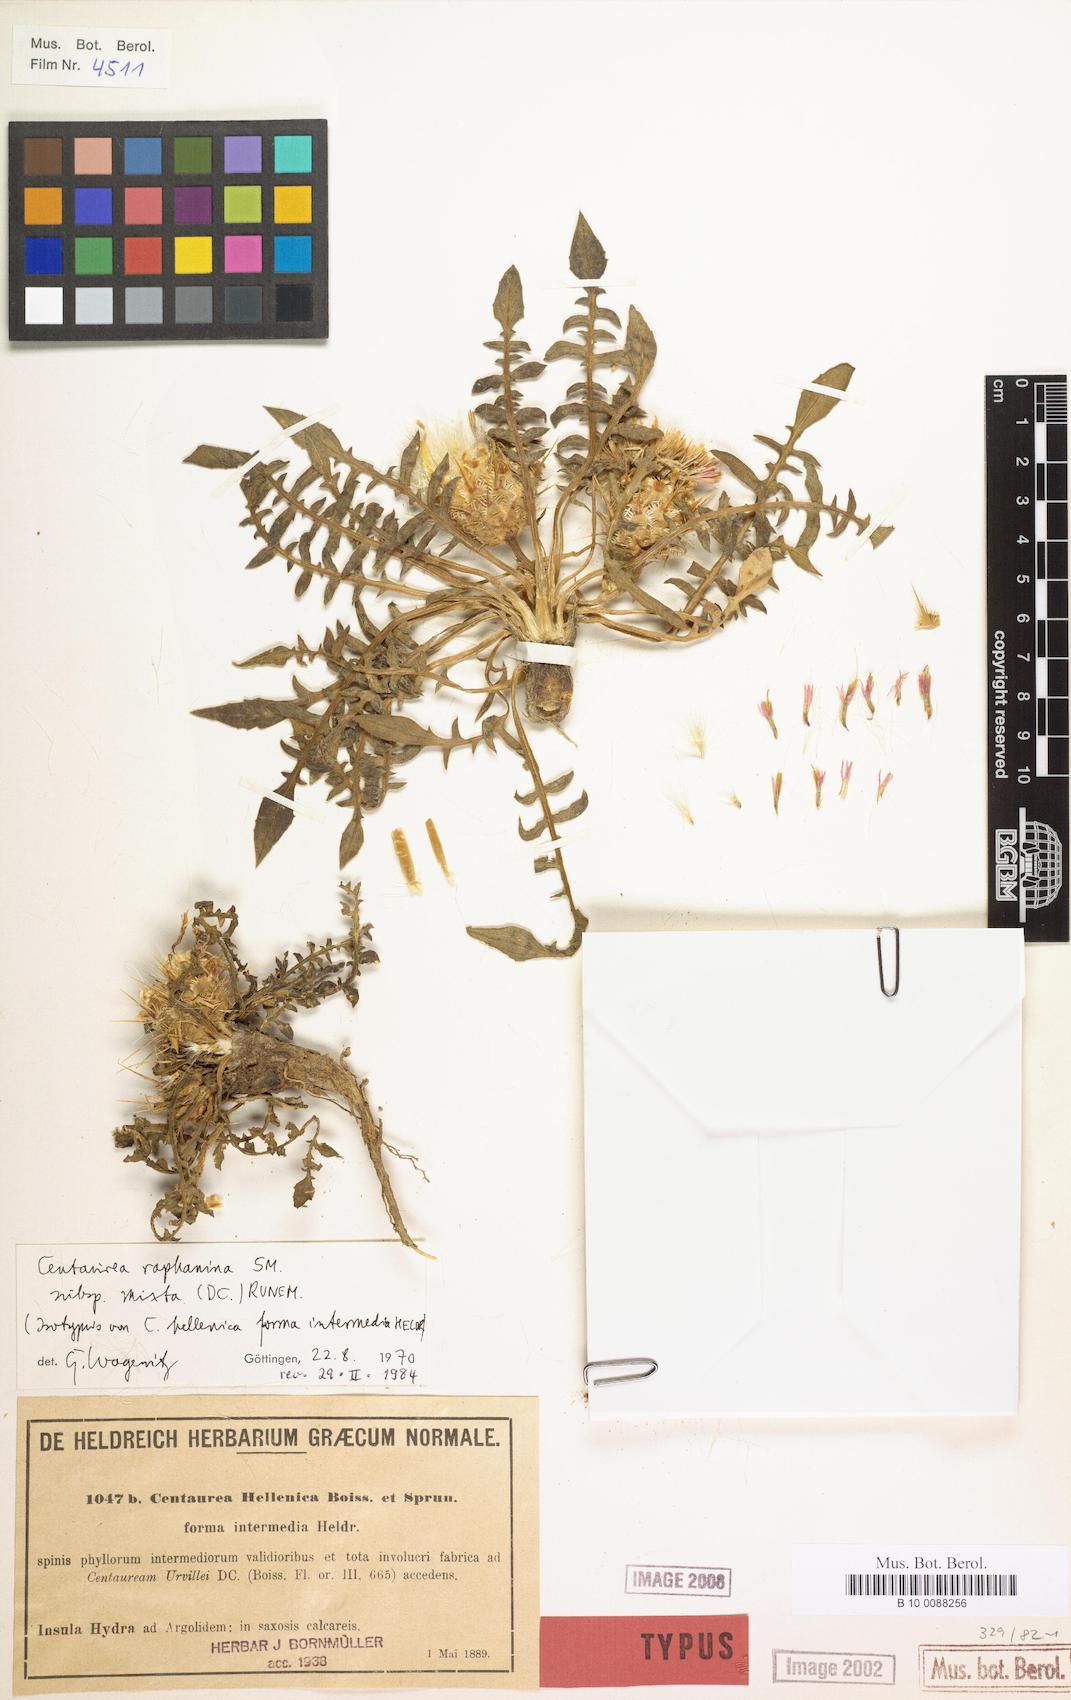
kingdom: Plantae
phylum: Tracheophyta
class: Magnoliopsida
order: Asterales
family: Asteraceae
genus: Centaurea
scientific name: Centaurea raphanina
